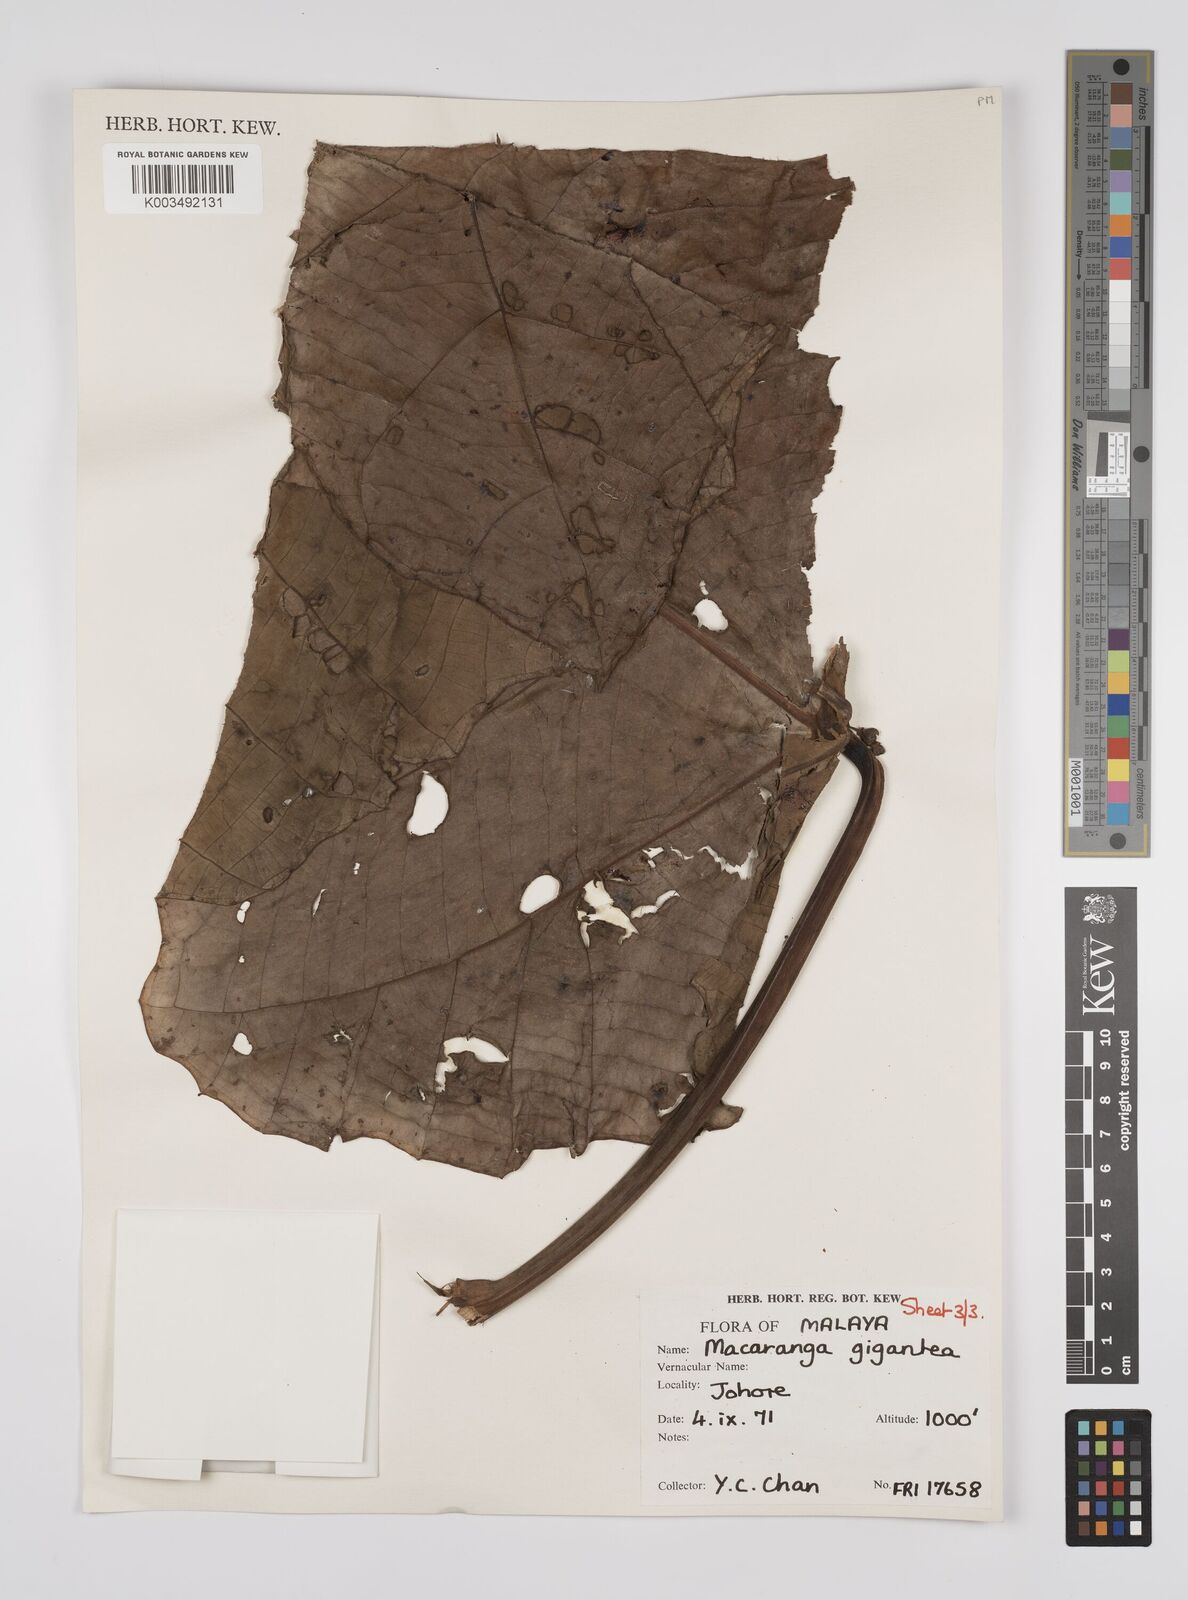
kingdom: Plantae
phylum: Tracheophyta
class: Magnoliopsida
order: Malpighiales
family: Euphorbiaceae
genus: Macaranga
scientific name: Macaranga gigantea
